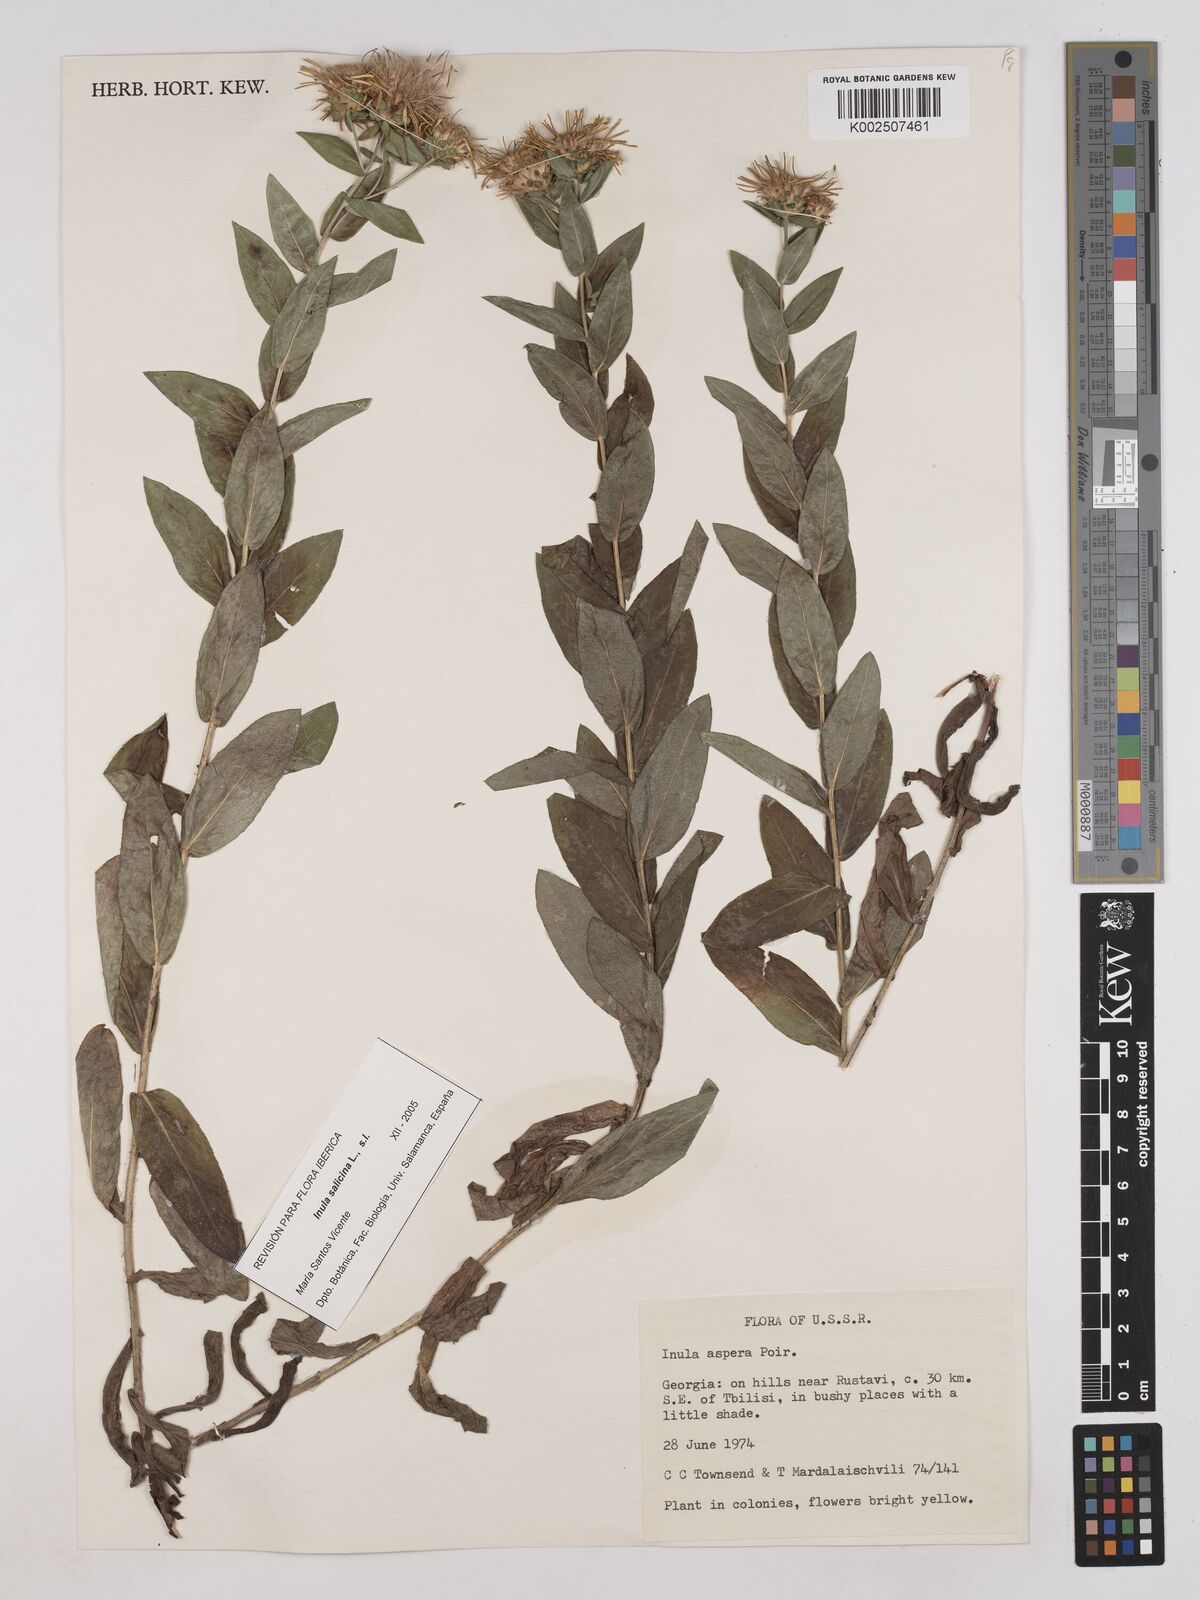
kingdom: Plantae
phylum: Tracheophyta
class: Magnoliopsida
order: Asterales
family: Asteraceae
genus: Inula
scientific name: Inula
